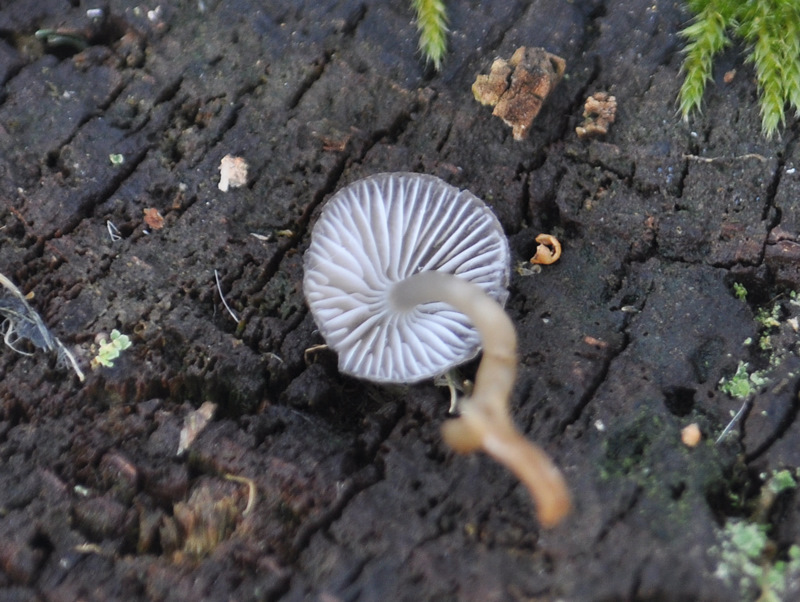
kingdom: Fungi
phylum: Basidiomycota
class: Agaricomycetes
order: Agaricales
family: Mycenaceae
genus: Mycena
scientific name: Mycena tintinnabulum
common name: vinter-huesvamp
